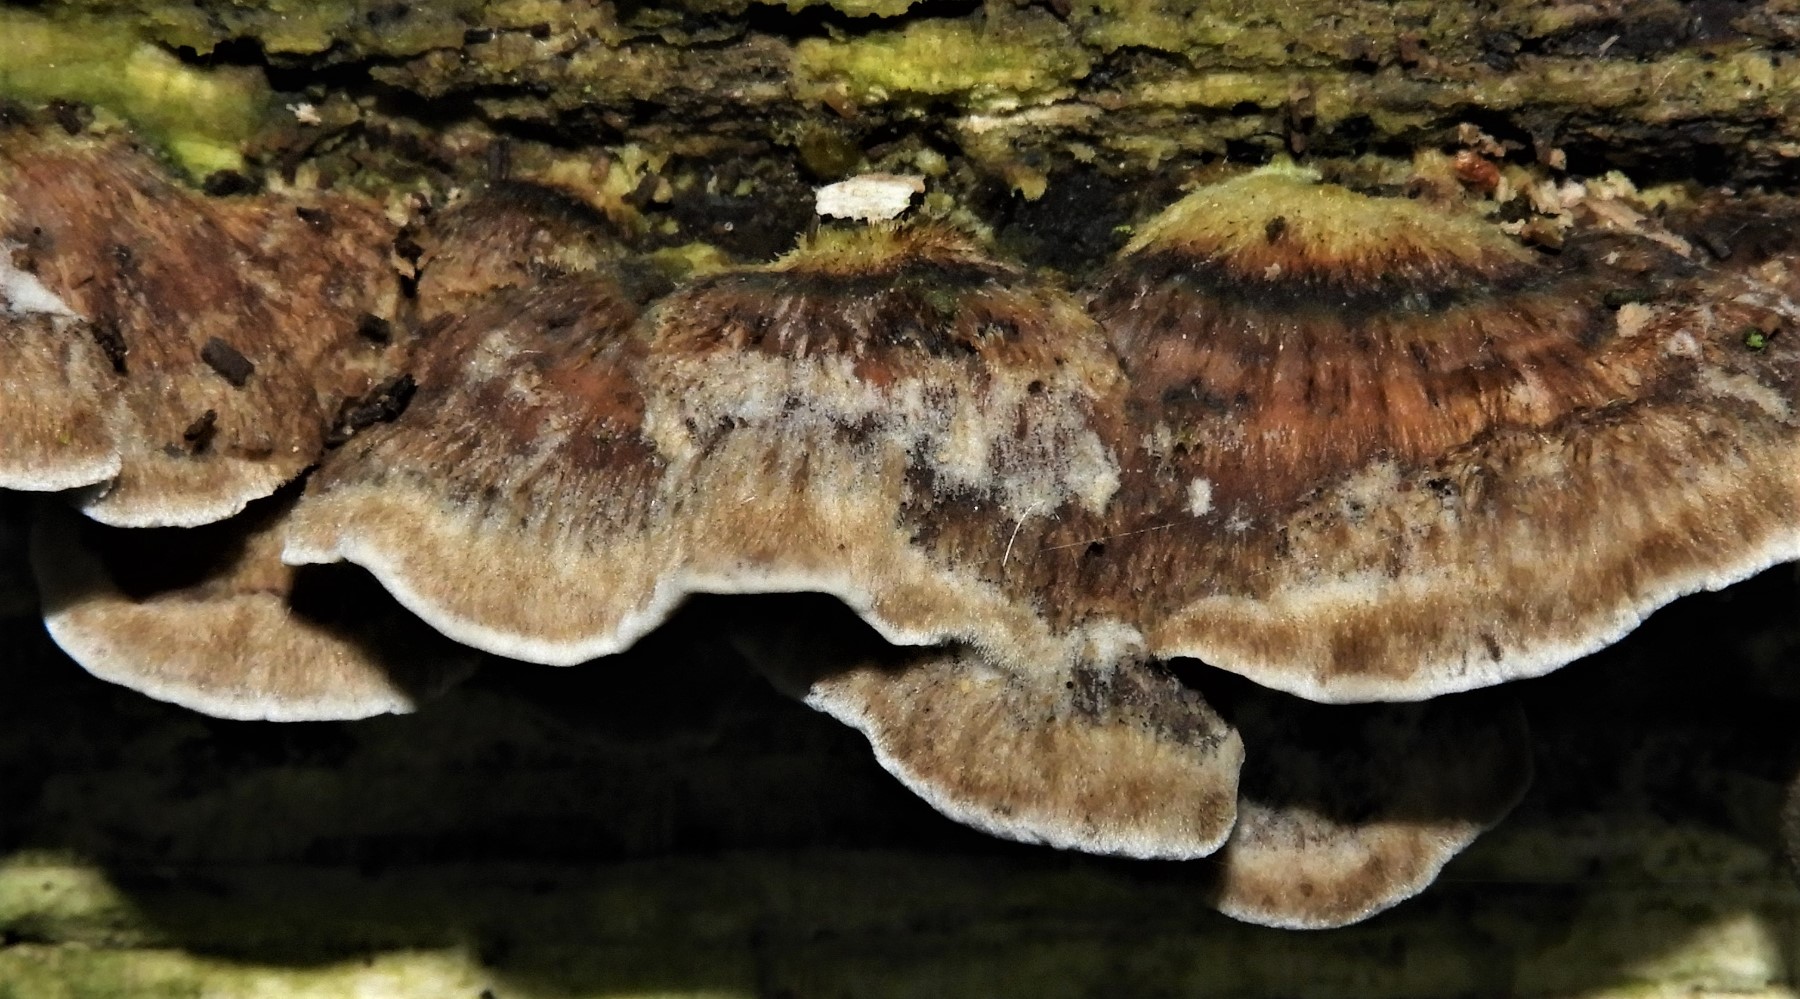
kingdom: Fungi
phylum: Basidiomycota
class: Agaricomycetes
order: Polyporales
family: Phanerochaetaceae
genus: Bjerkandera
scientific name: Bjerkandera adusta
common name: sveden sodporesvamp
